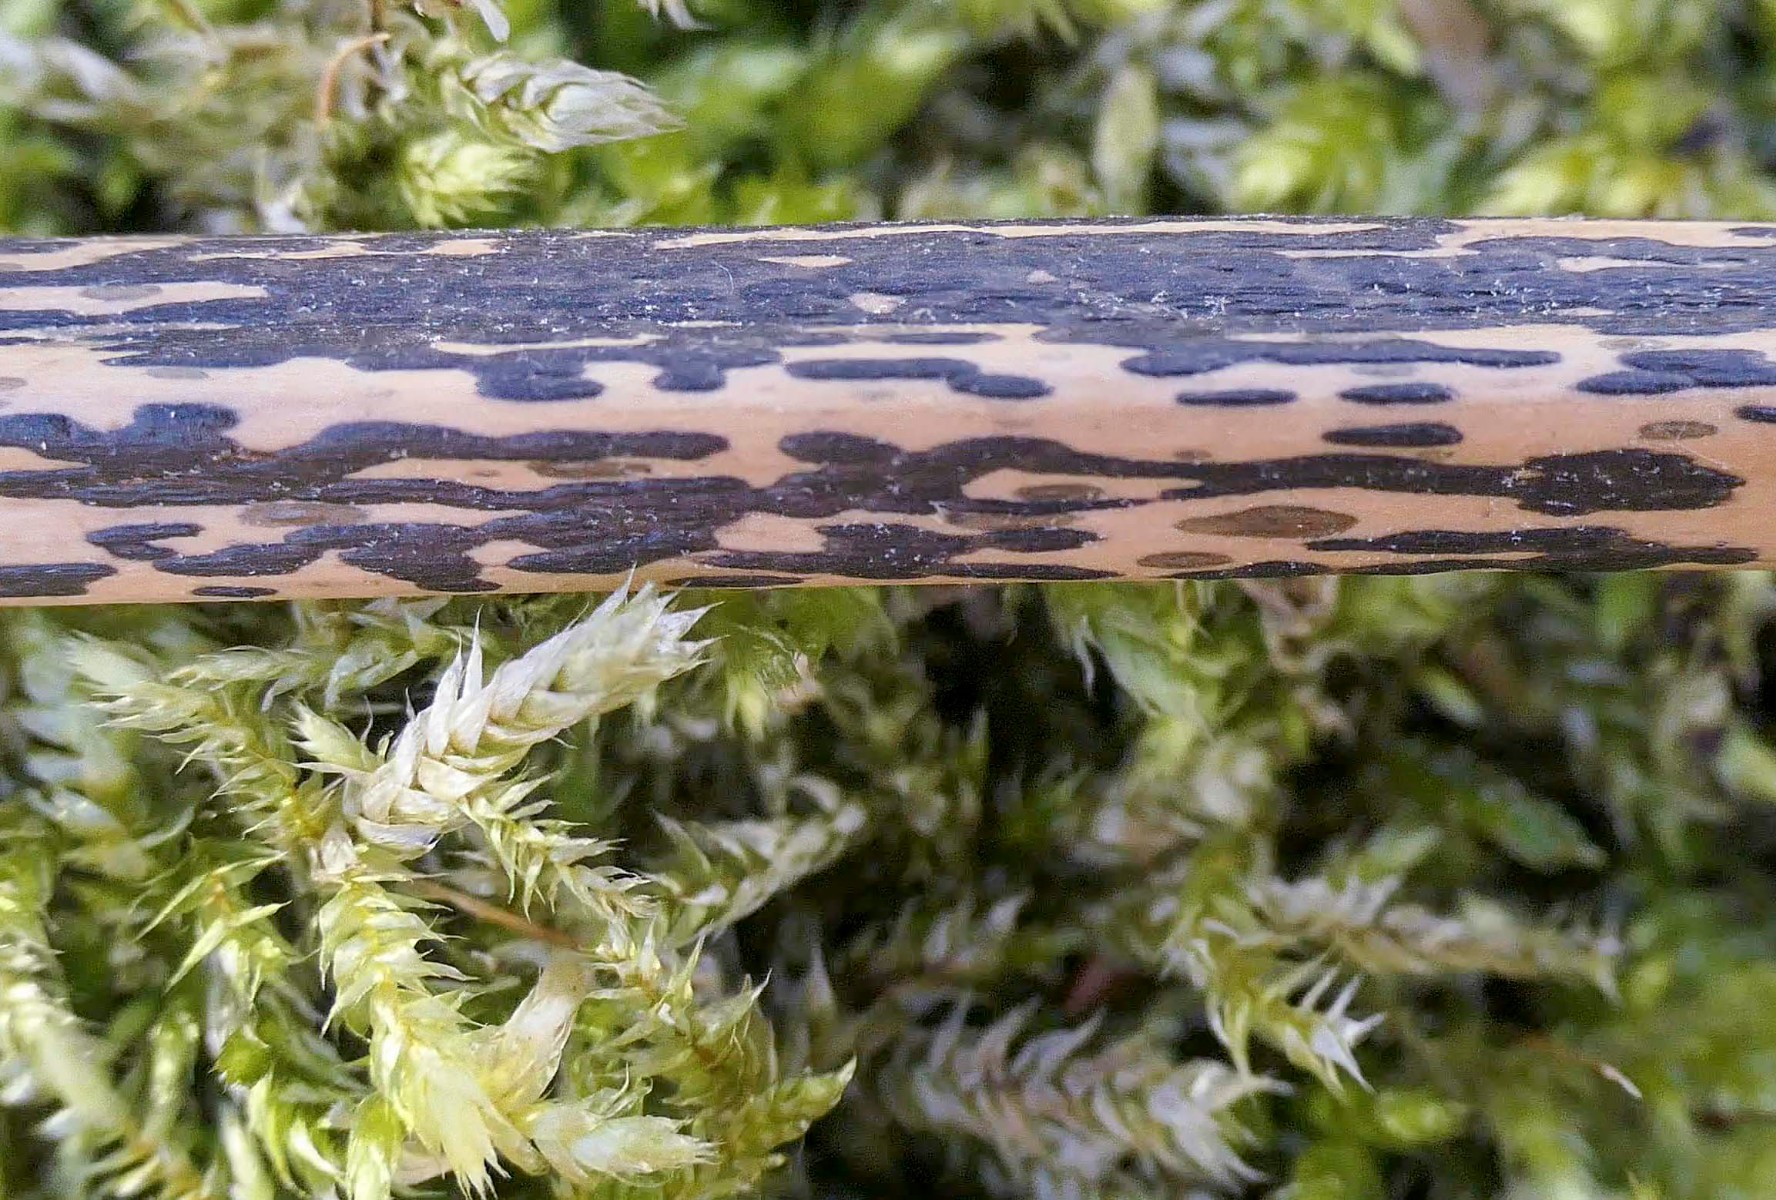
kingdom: Fungi
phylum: Ascomycota
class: Dothideomycetes
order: Pleosporales
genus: Rhopographus
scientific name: Rhopographus filicinus
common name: Bracken map
